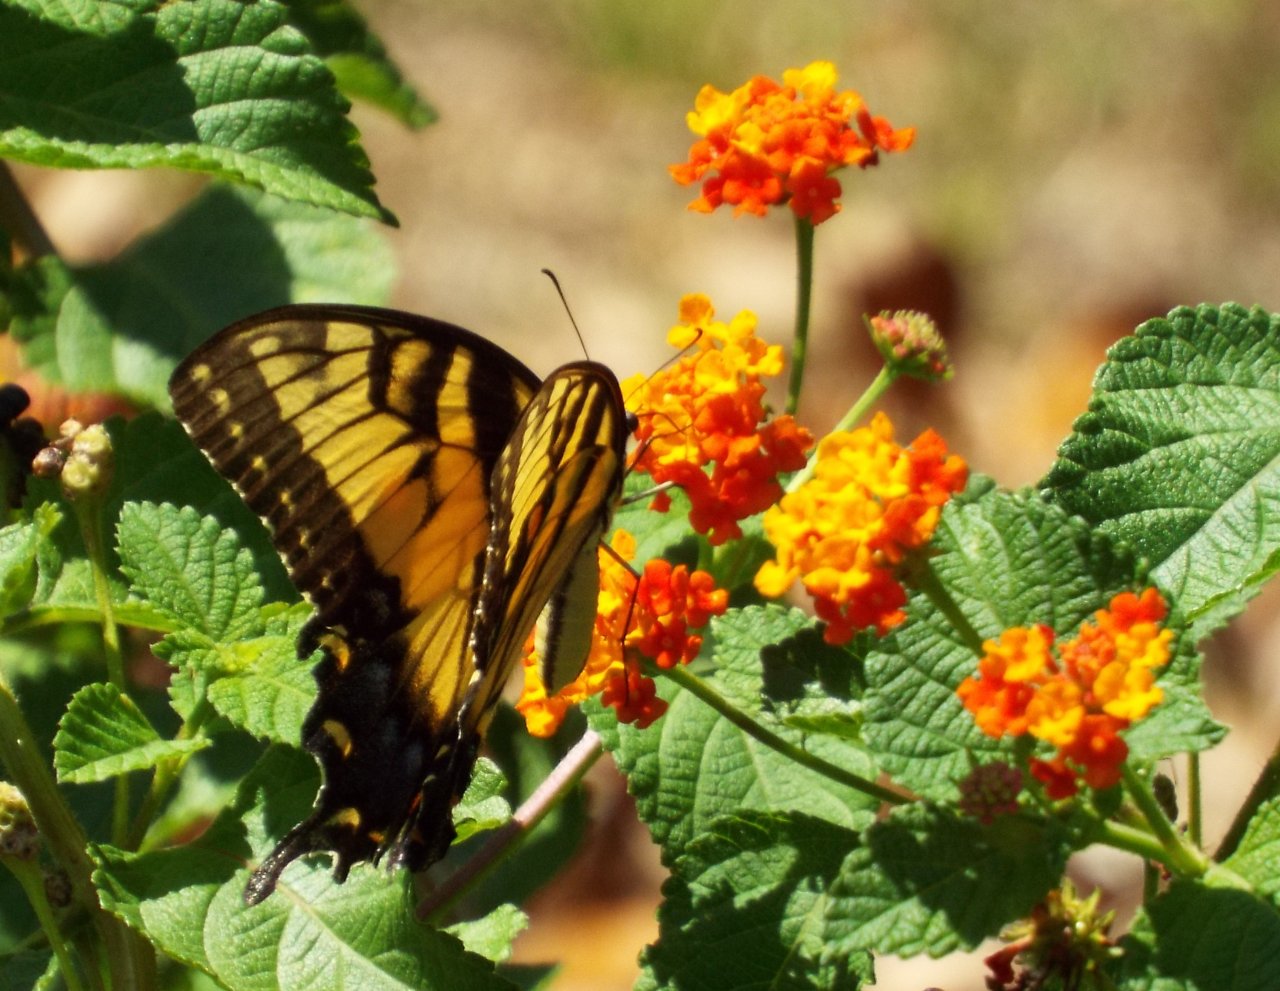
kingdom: Animalia
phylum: Arthropoda
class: Insecta
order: Lepidoptera
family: Papilionidae
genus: Pterourus
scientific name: Pterourus glaucus
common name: Eastern Tiger Swallowtail
